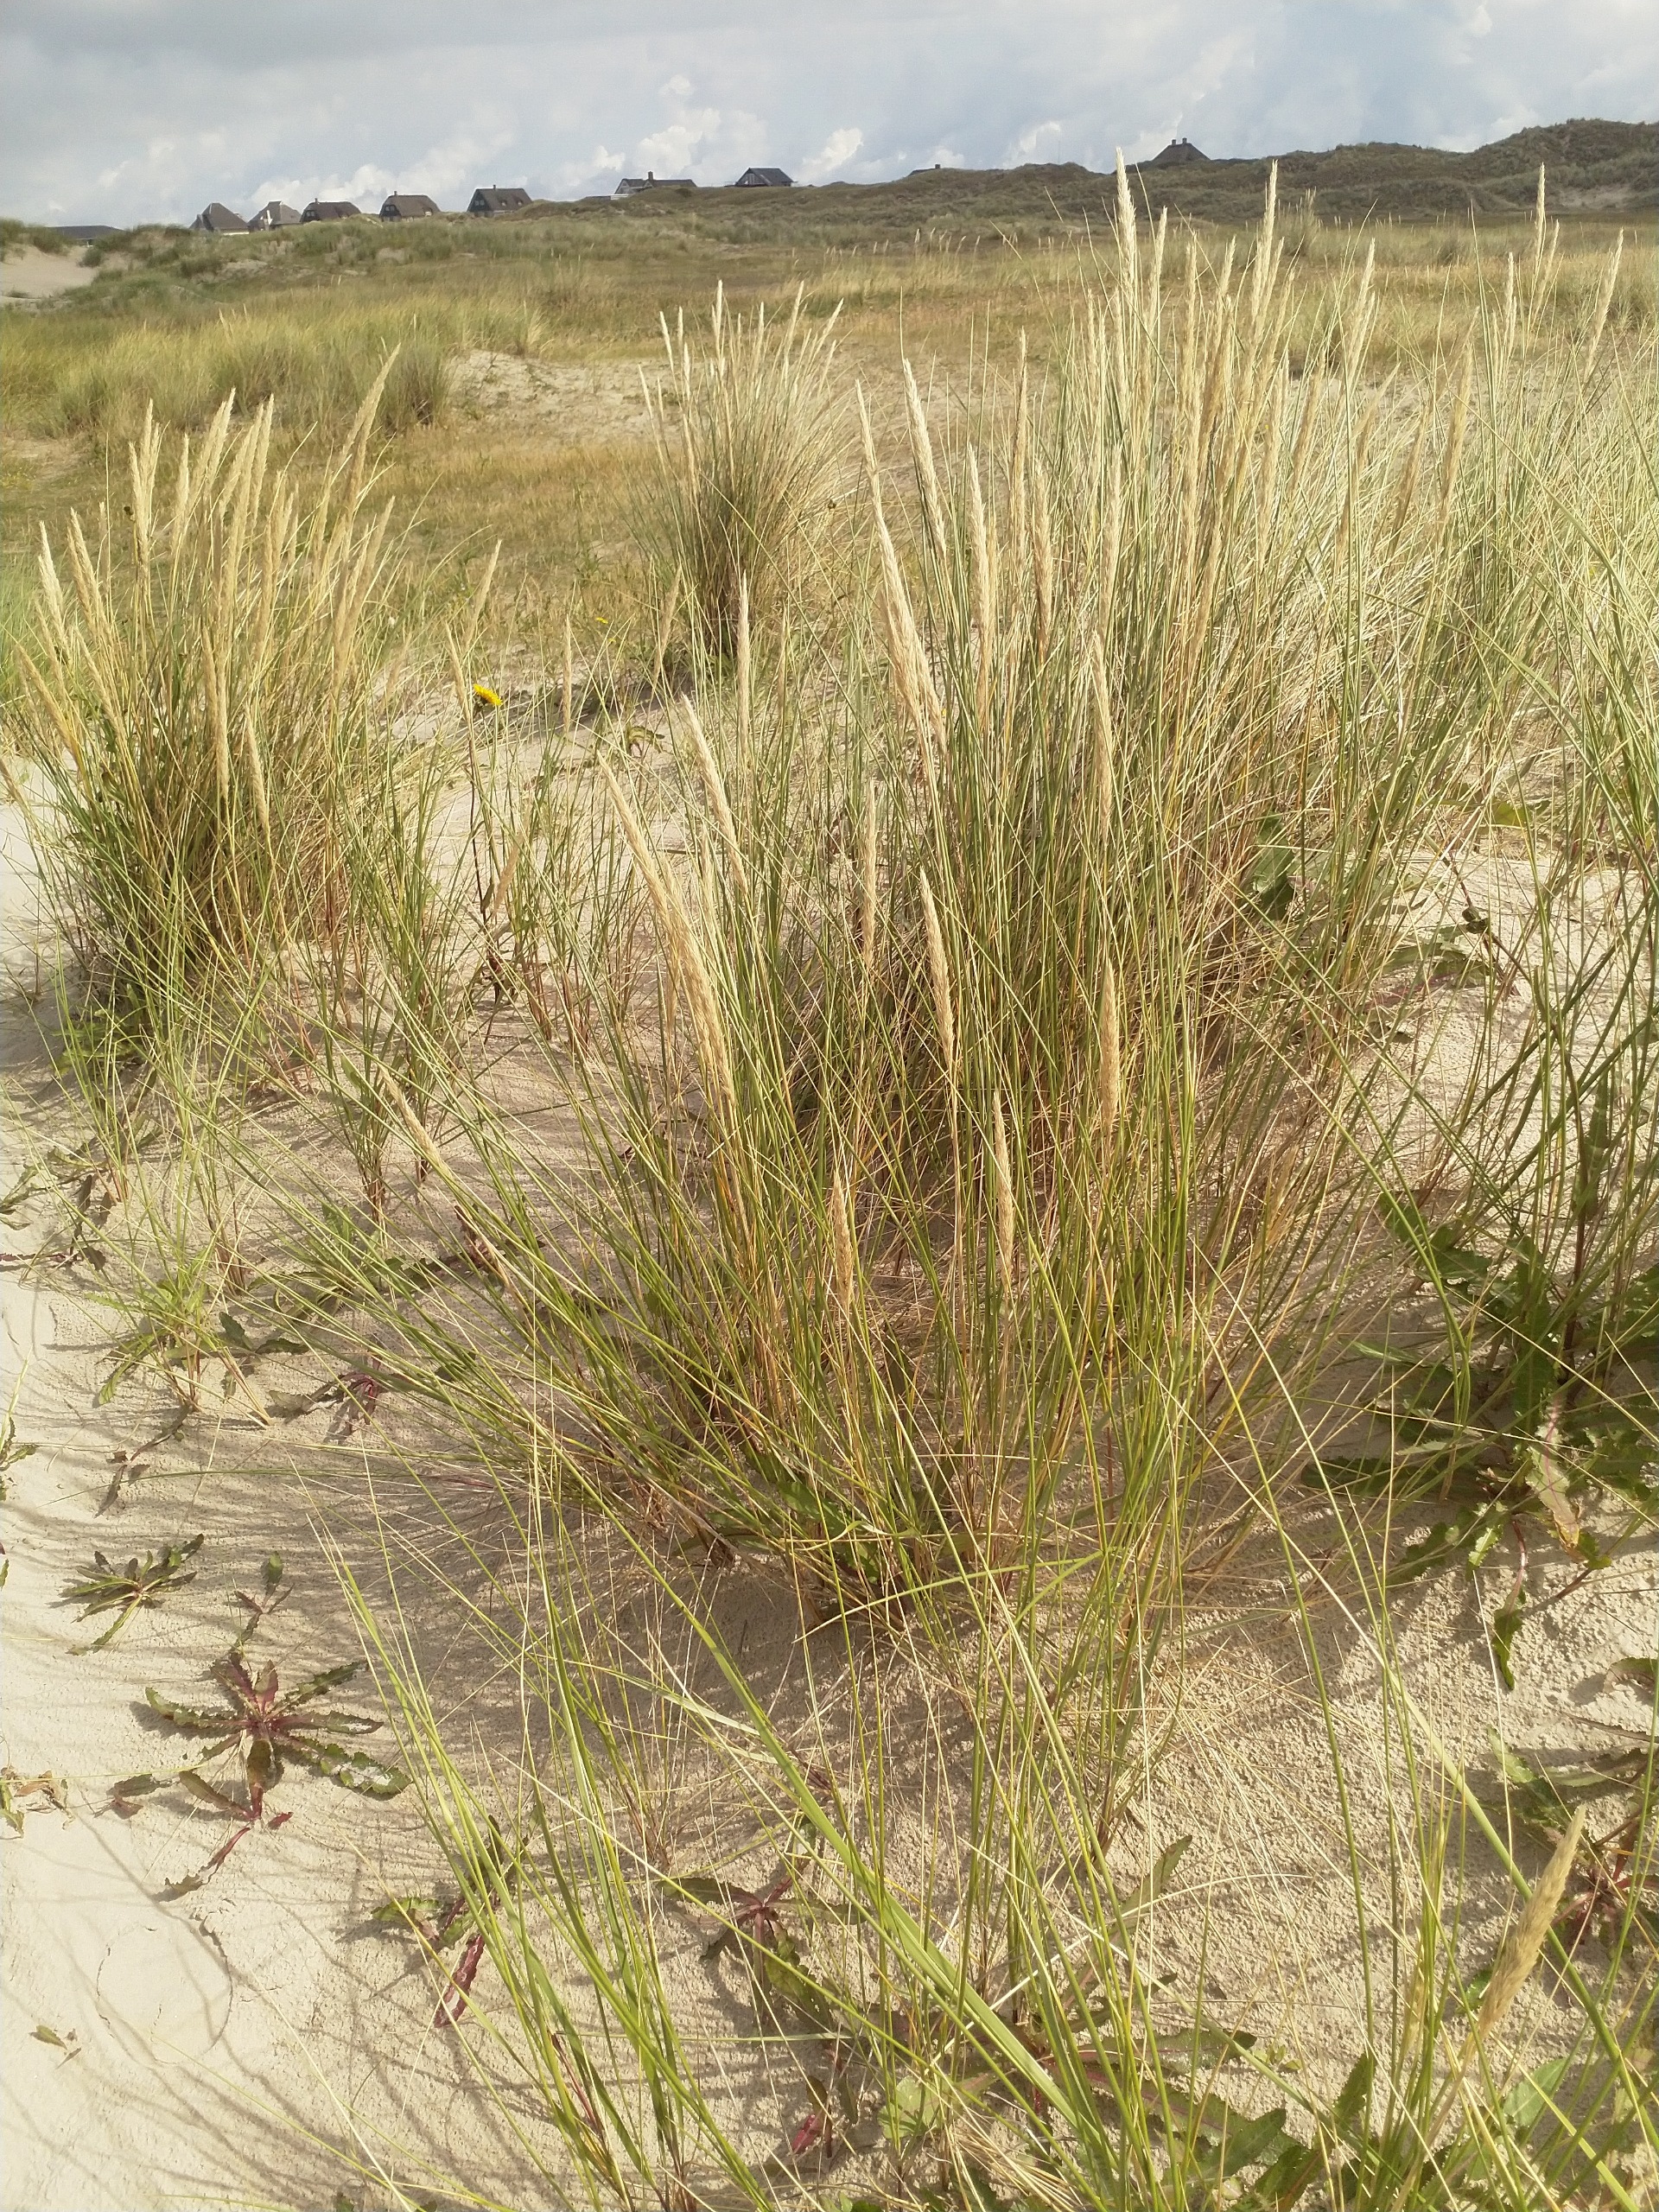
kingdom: Plantae
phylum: Tracheophyta
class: Liliopsida
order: Poales
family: Poaceae
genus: Calamagrostis
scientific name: Calamagrostis arenaria
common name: Sand-hjælme
